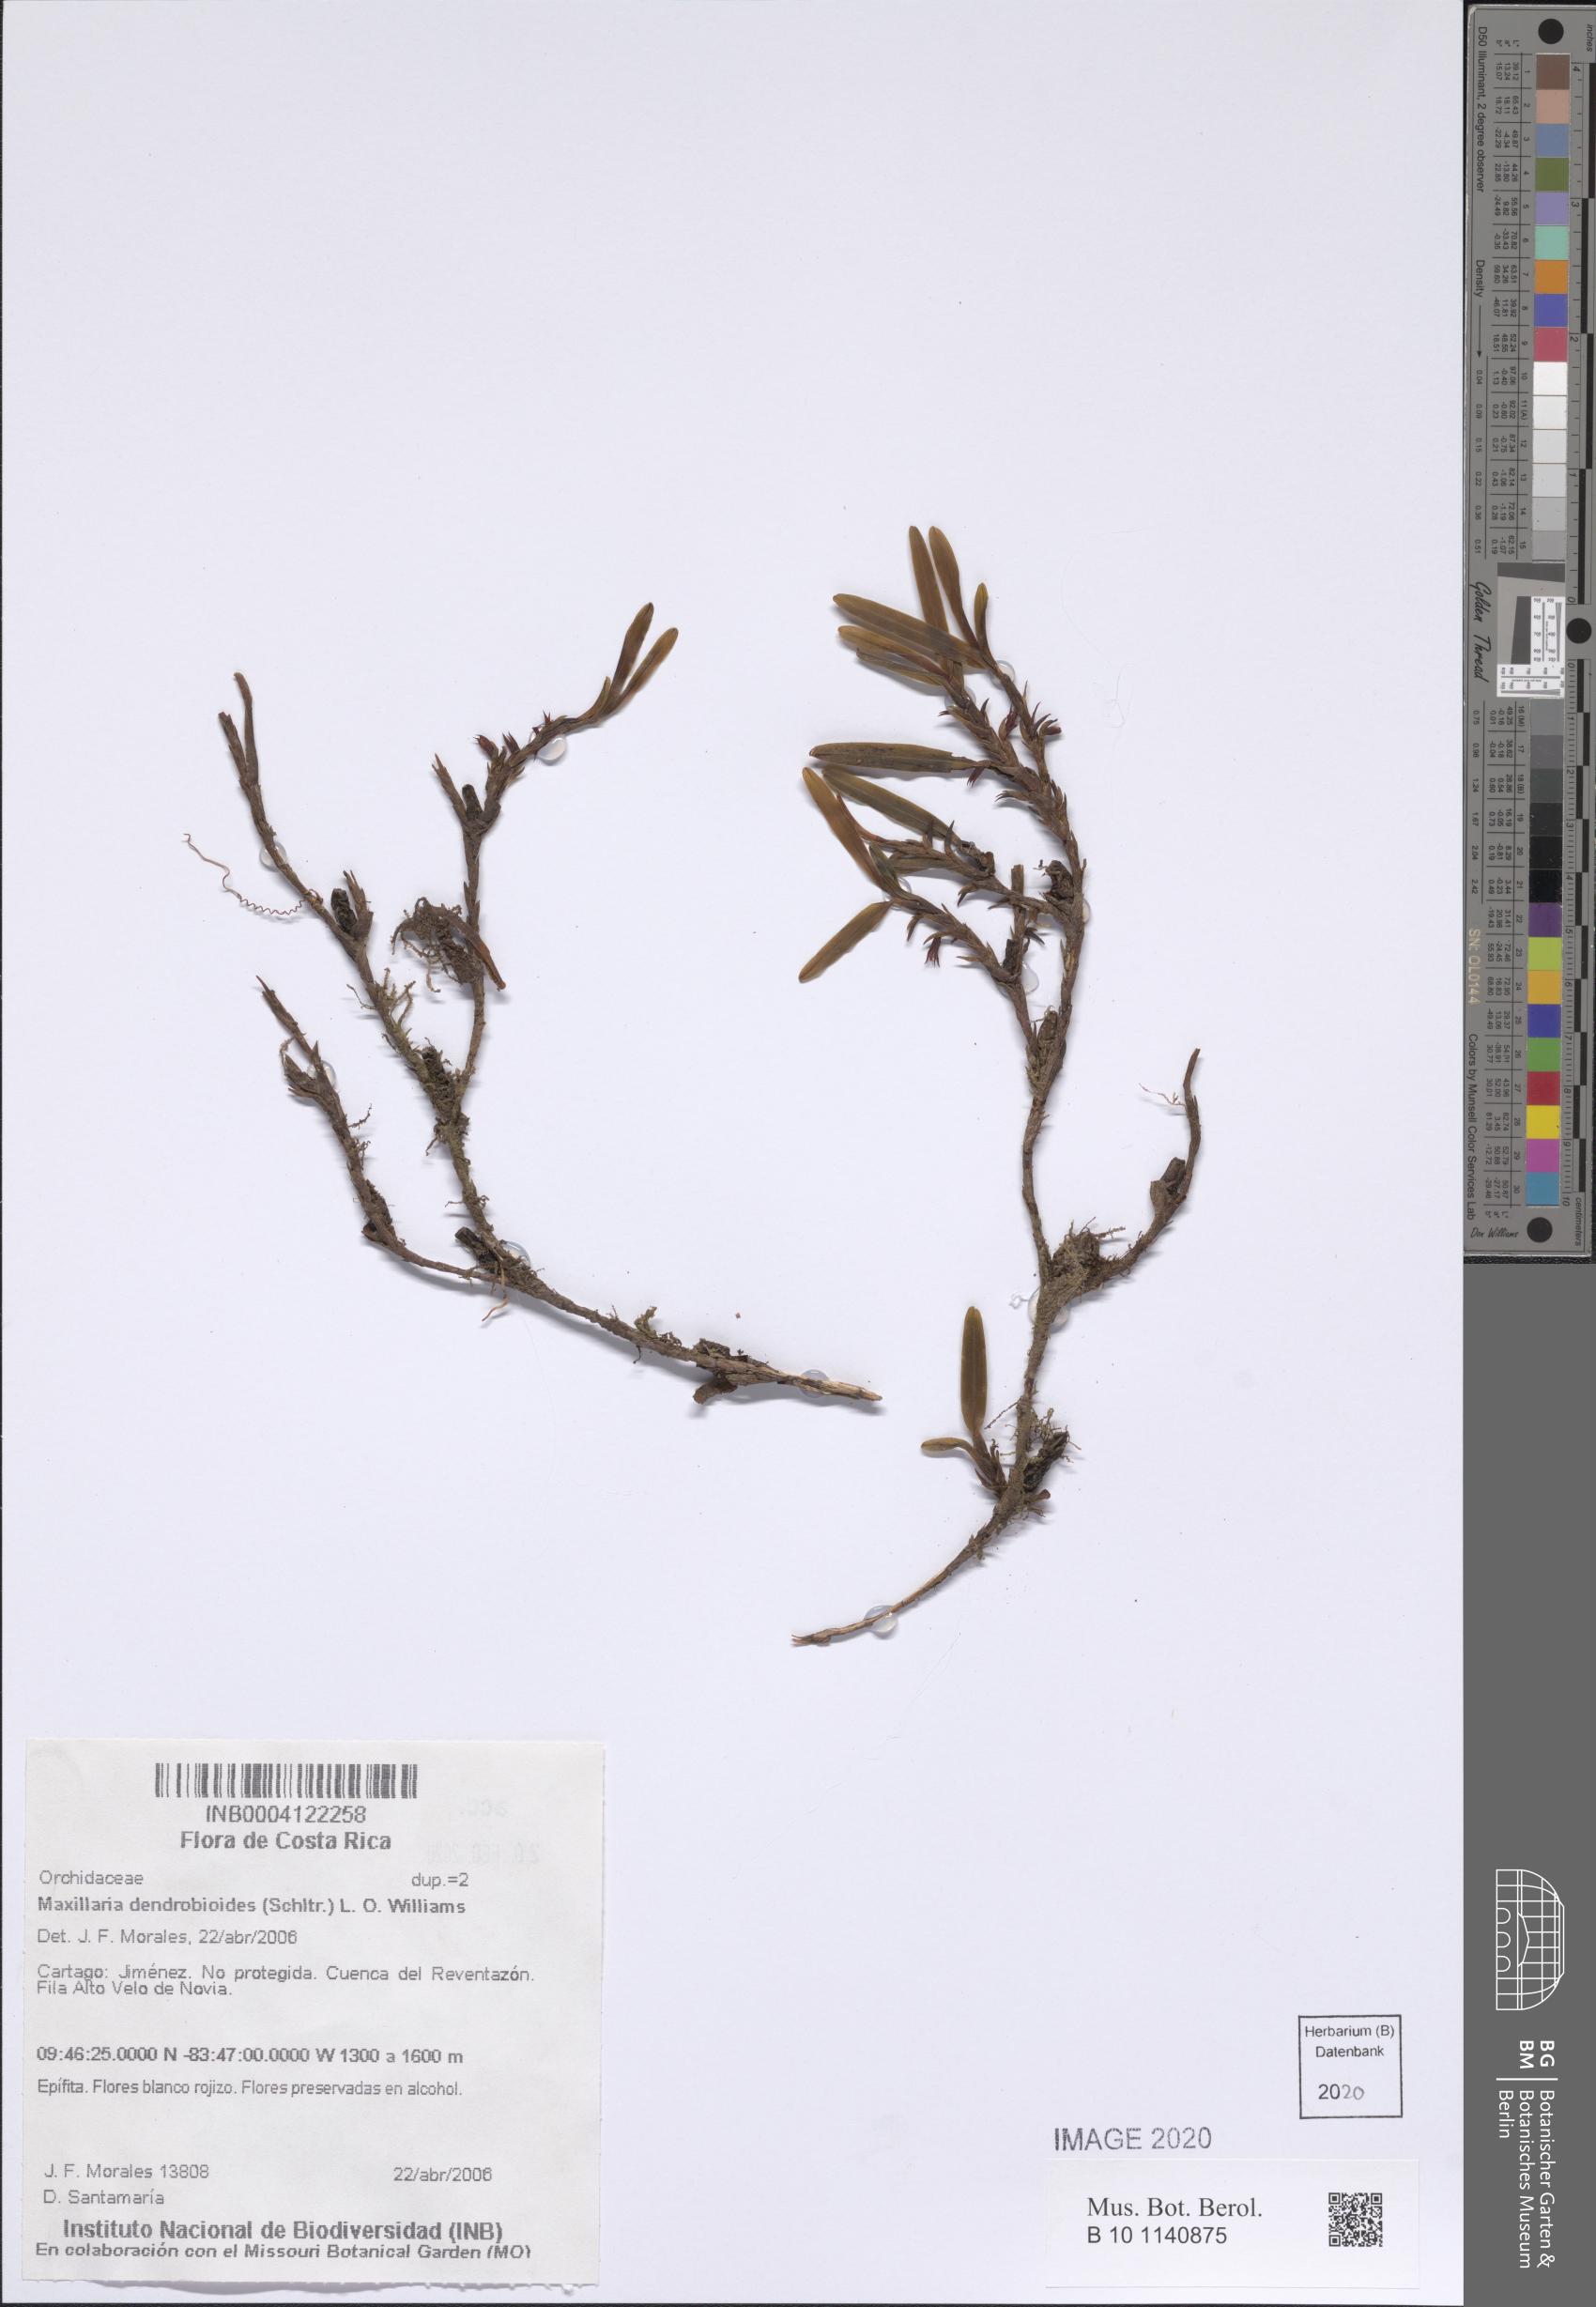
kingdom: Plantae
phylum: Tracheophyta
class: Liliopsida
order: Asparagales
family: Orchidaceae
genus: Maxillaria
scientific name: Maxillaria dendrobioides
